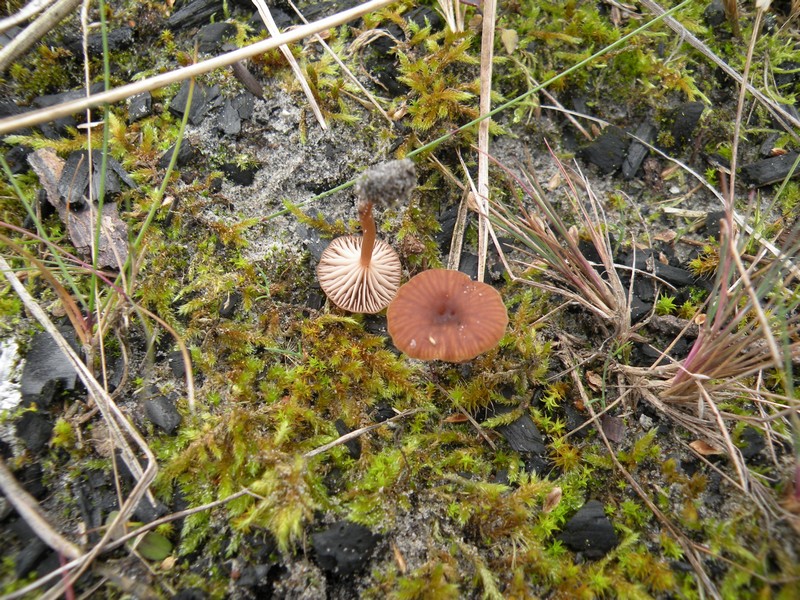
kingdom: Fungi
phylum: Basidiomycota
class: Agaricomycetes
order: Agaricales
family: Tricholomataceae
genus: Omphalina
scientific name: Omphalina pyxidata
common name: rødbrun navlehat
